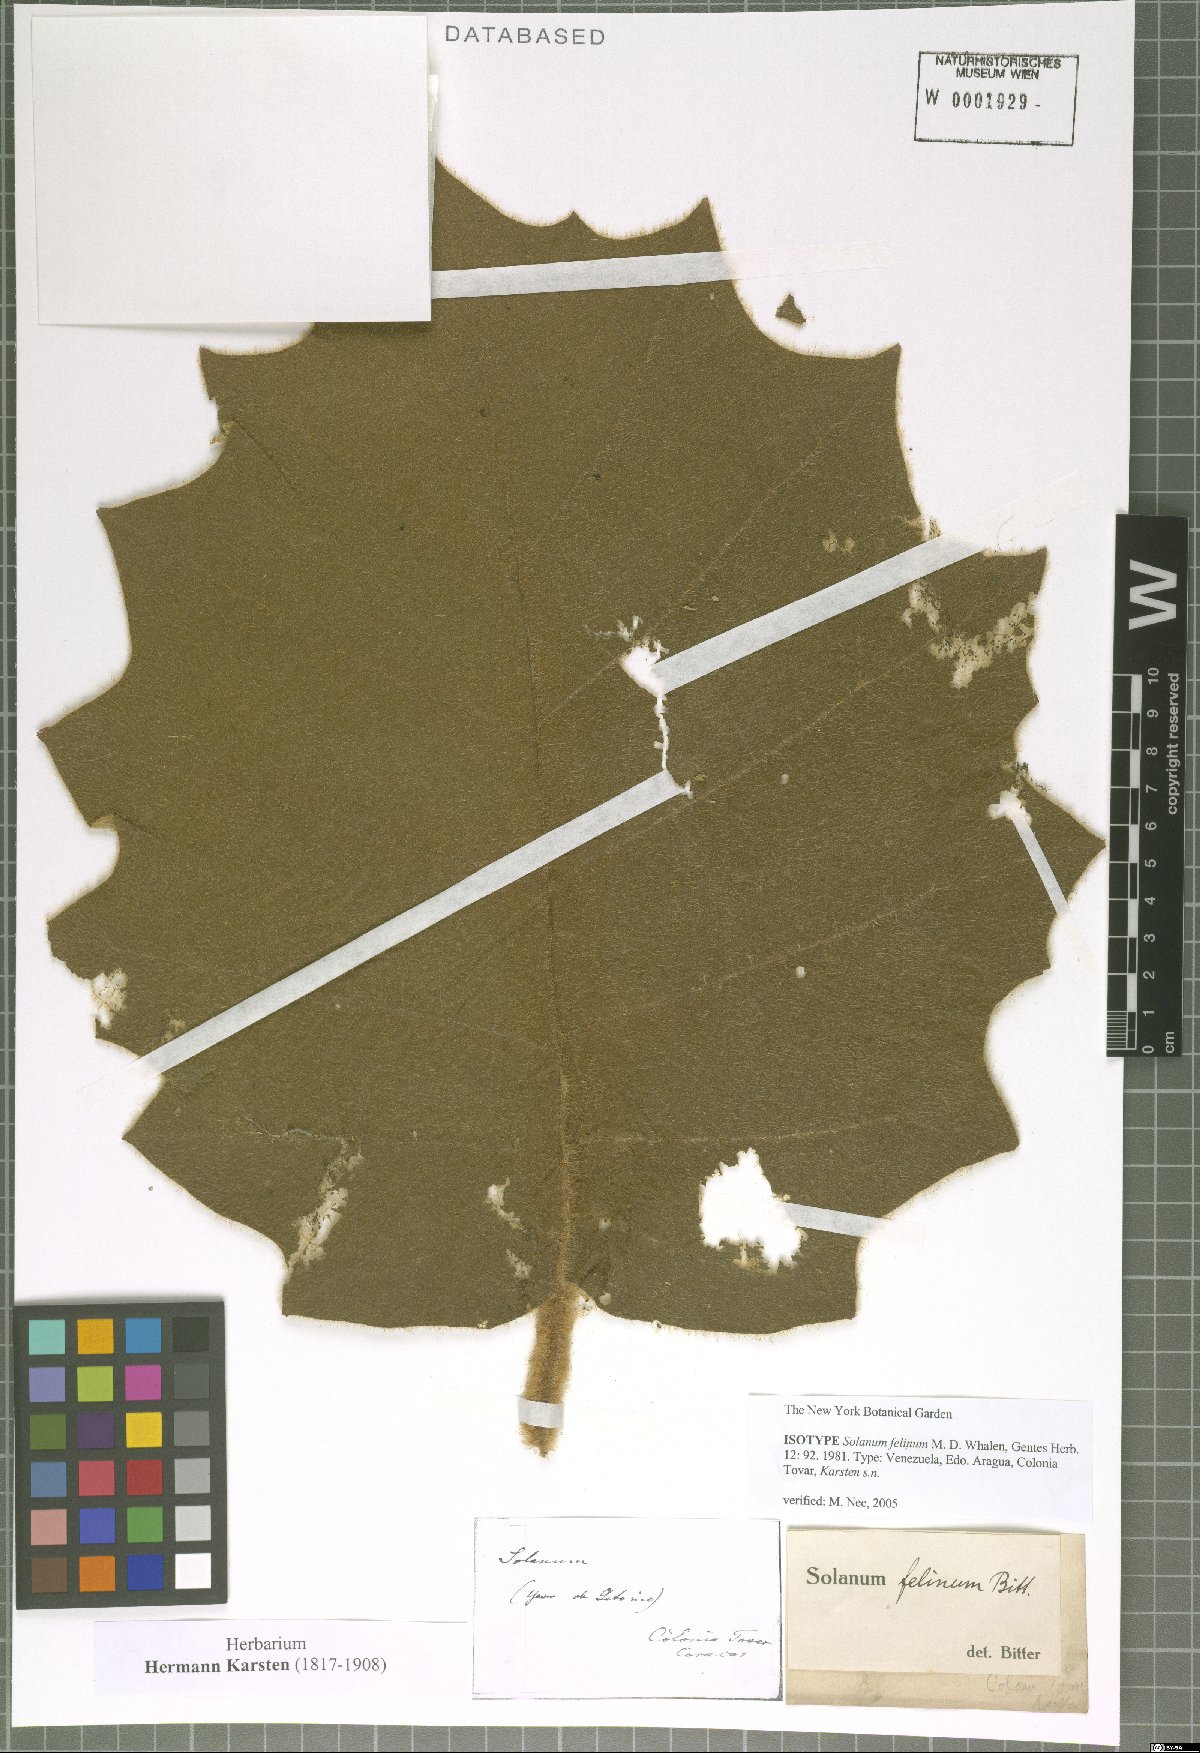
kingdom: Plantae
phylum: Tracheophyta
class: Magnoliopsida
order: Solanales
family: Solanaceae
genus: Solanum
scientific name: Solanum felinum
